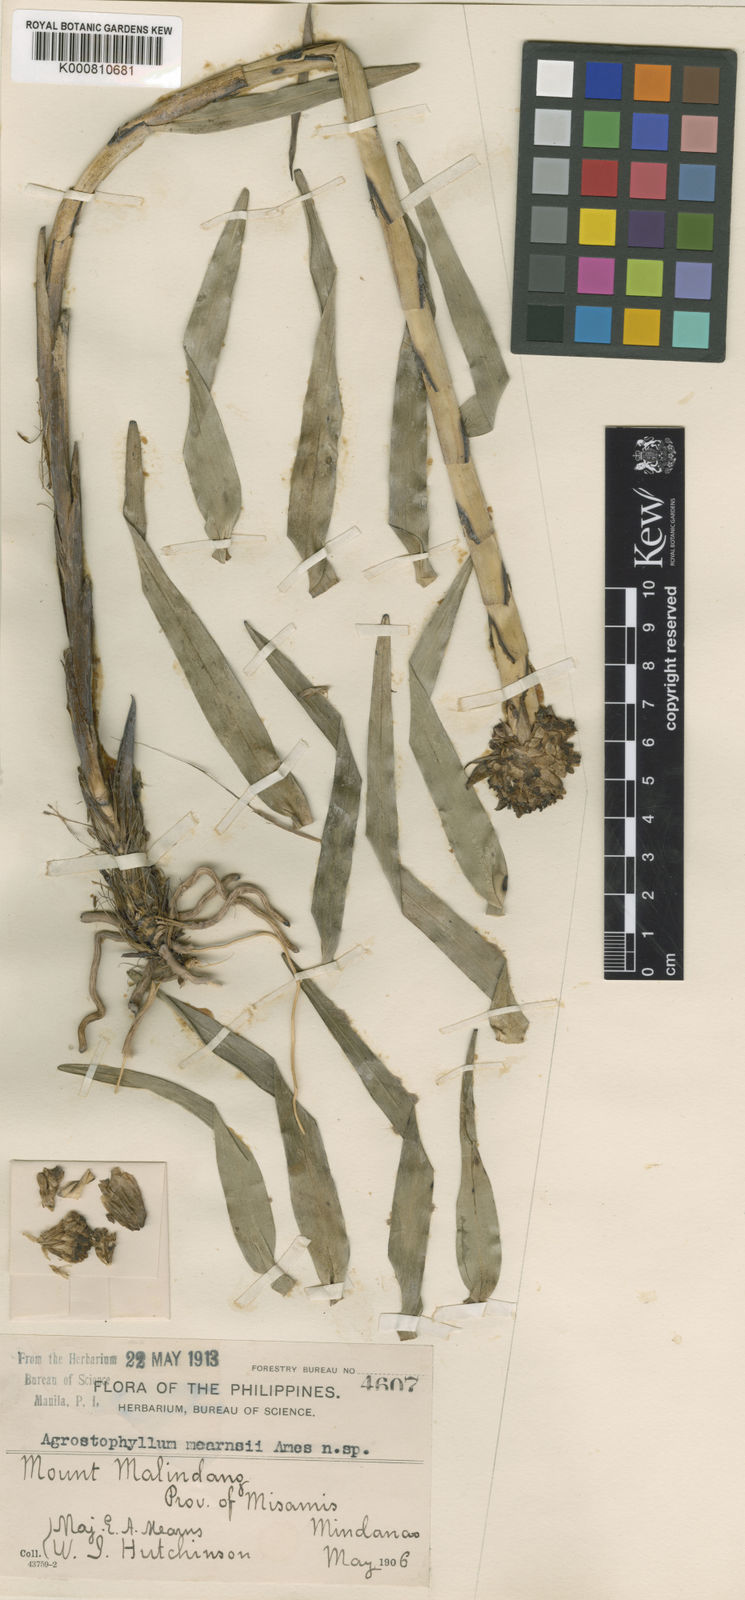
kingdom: Plantae
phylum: Tracheophyta
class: Liliopsida
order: Asparagales
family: Orchidaceae
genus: Agrostophyllum
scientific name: Agrostophyllum globiceps
